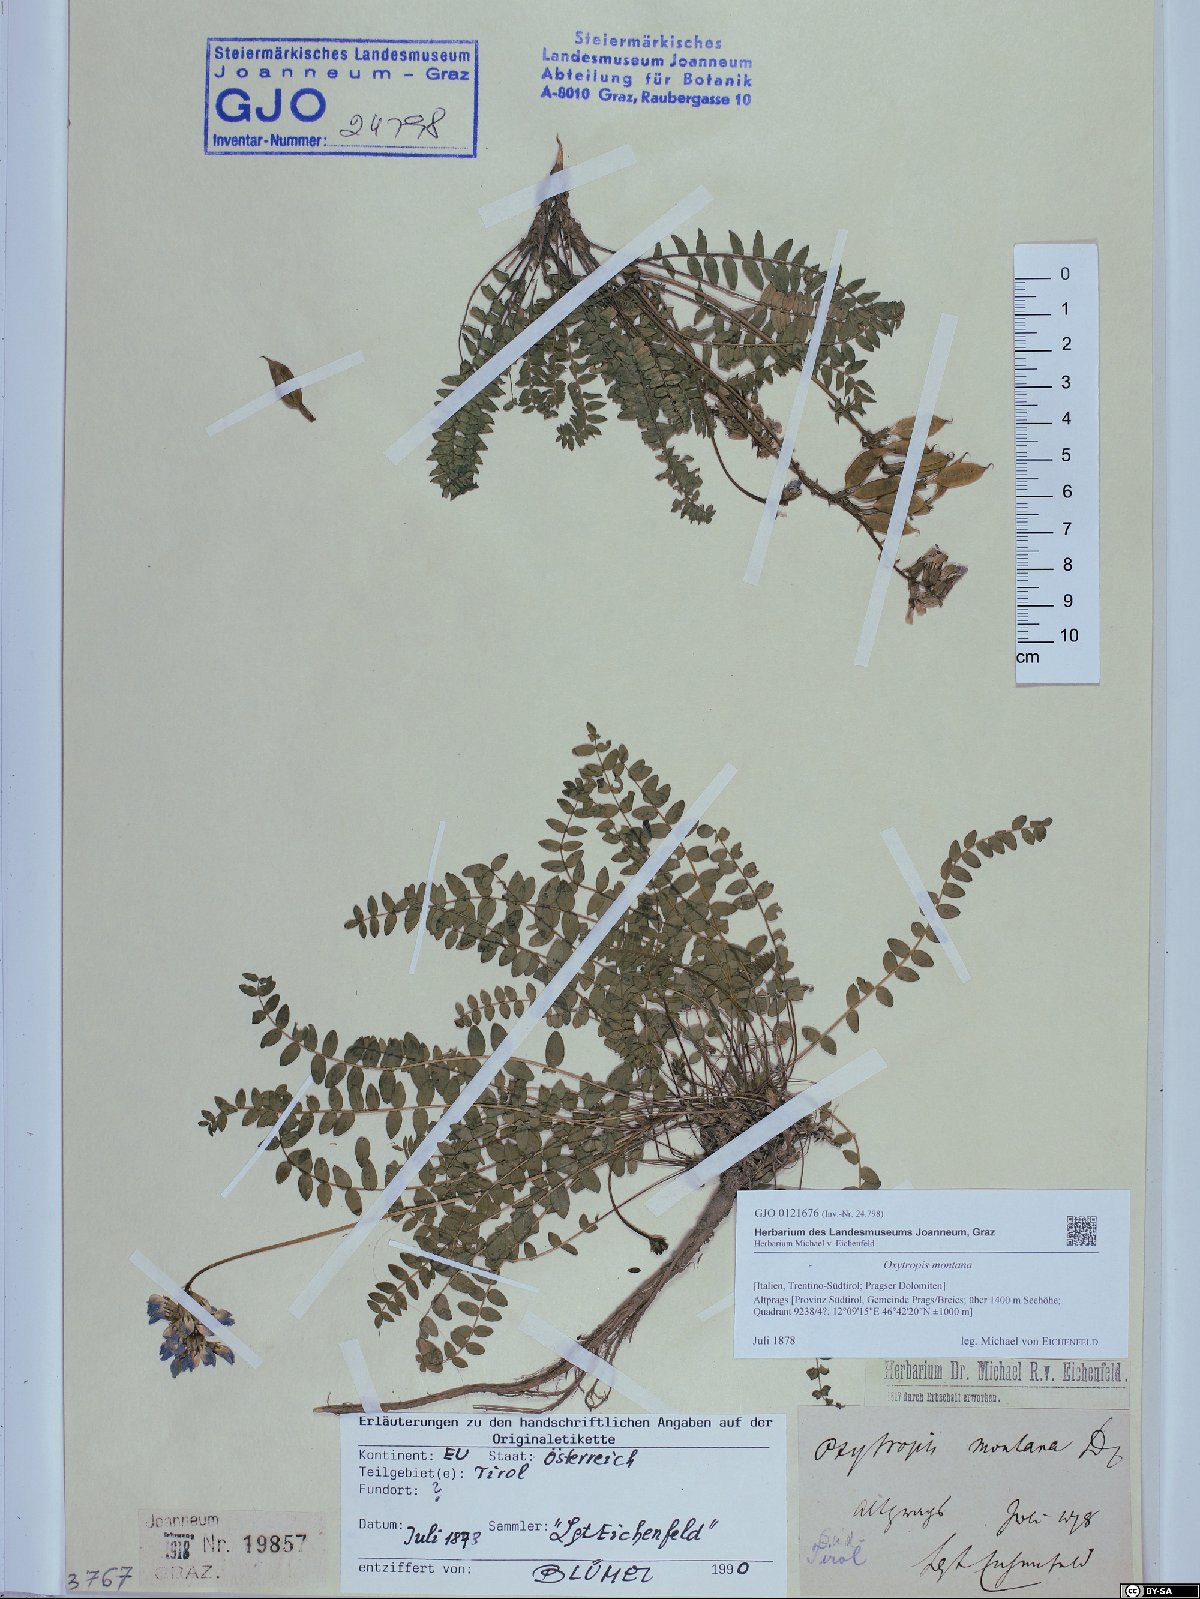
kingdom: Plantae
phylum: Tracheophyta
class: Magnoliopsida
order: Fabales
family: Fabaceae
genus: Oxytropis
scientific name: Oxytropis montana
